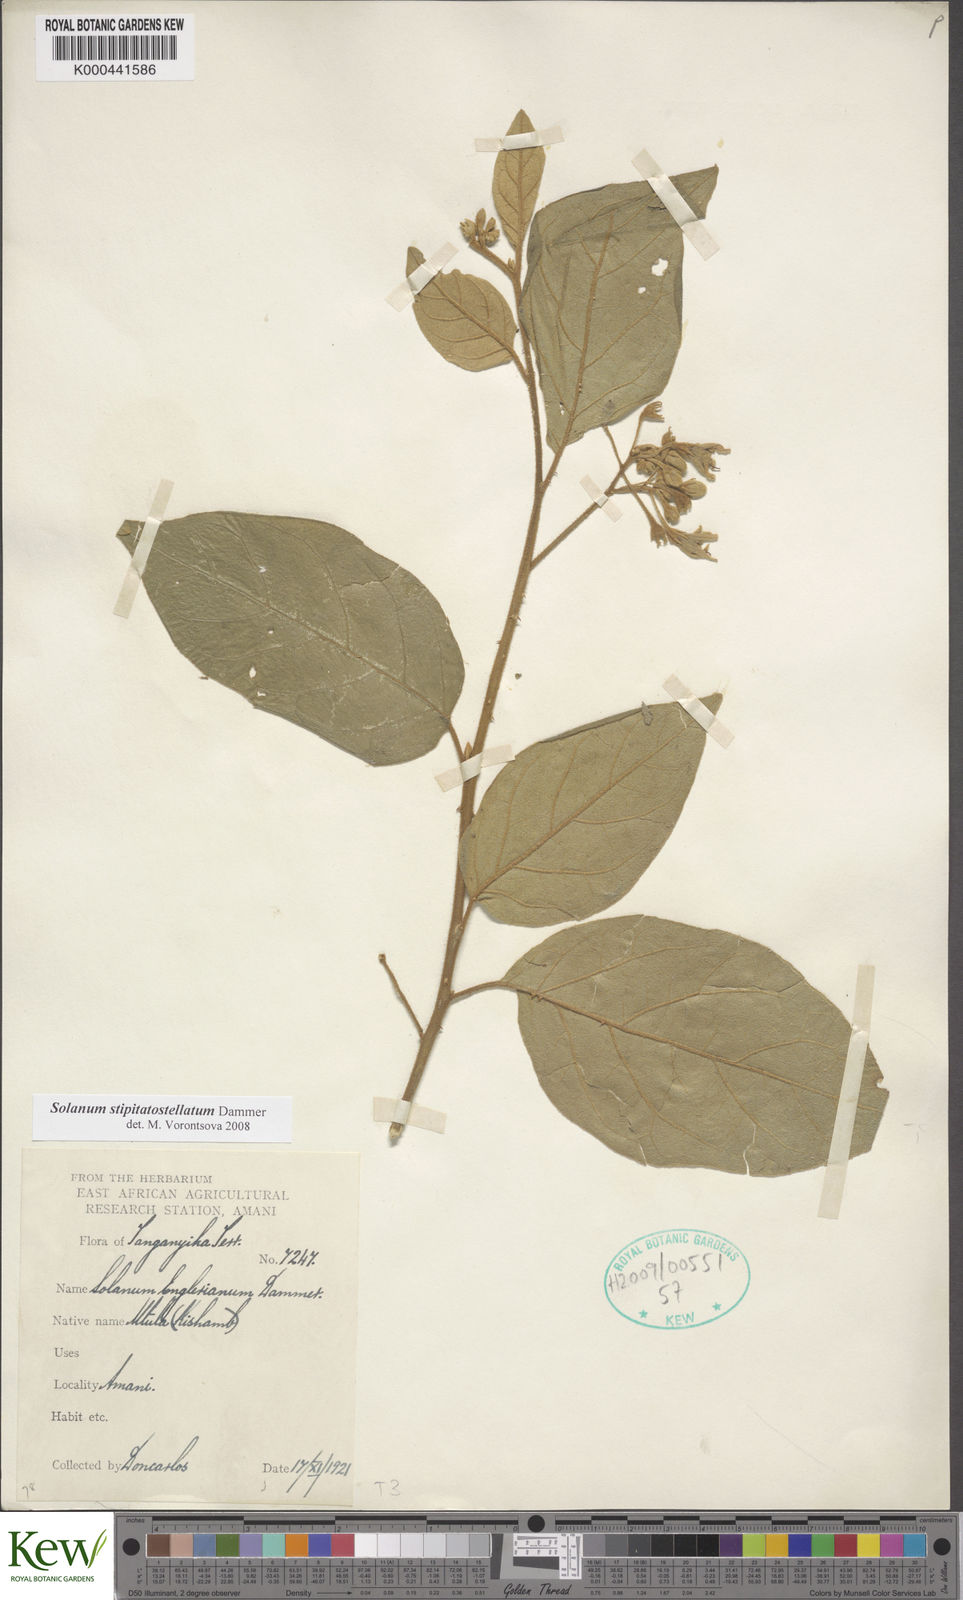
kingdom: Plantae
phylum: Tracheophyta
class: Magnoliopsida
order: Solanales
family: Solanaceae
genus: Solanum
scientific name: Solanum stipitatostellatum
